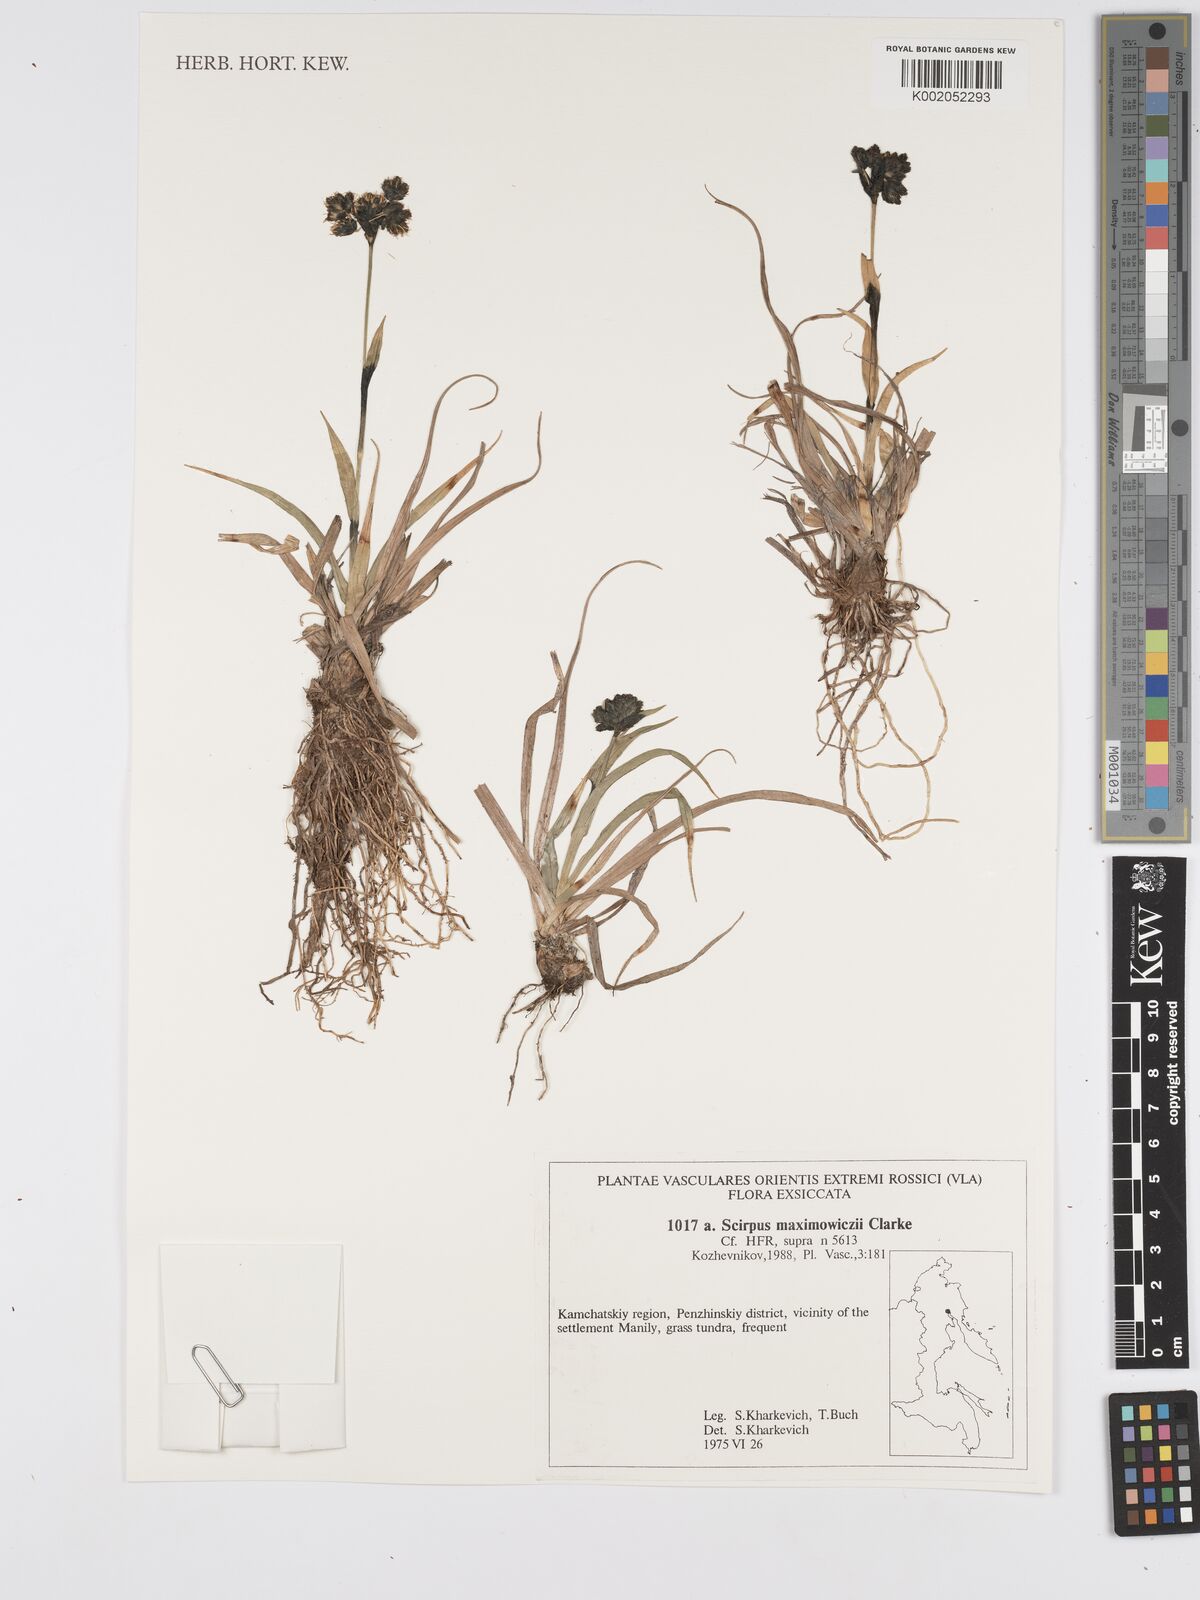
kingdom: Plantae
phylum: Tracheophyta
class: Liliopsida
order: Poales
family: Cyperaceae
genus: Scirpus
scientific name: Scirpus maximowiczii
